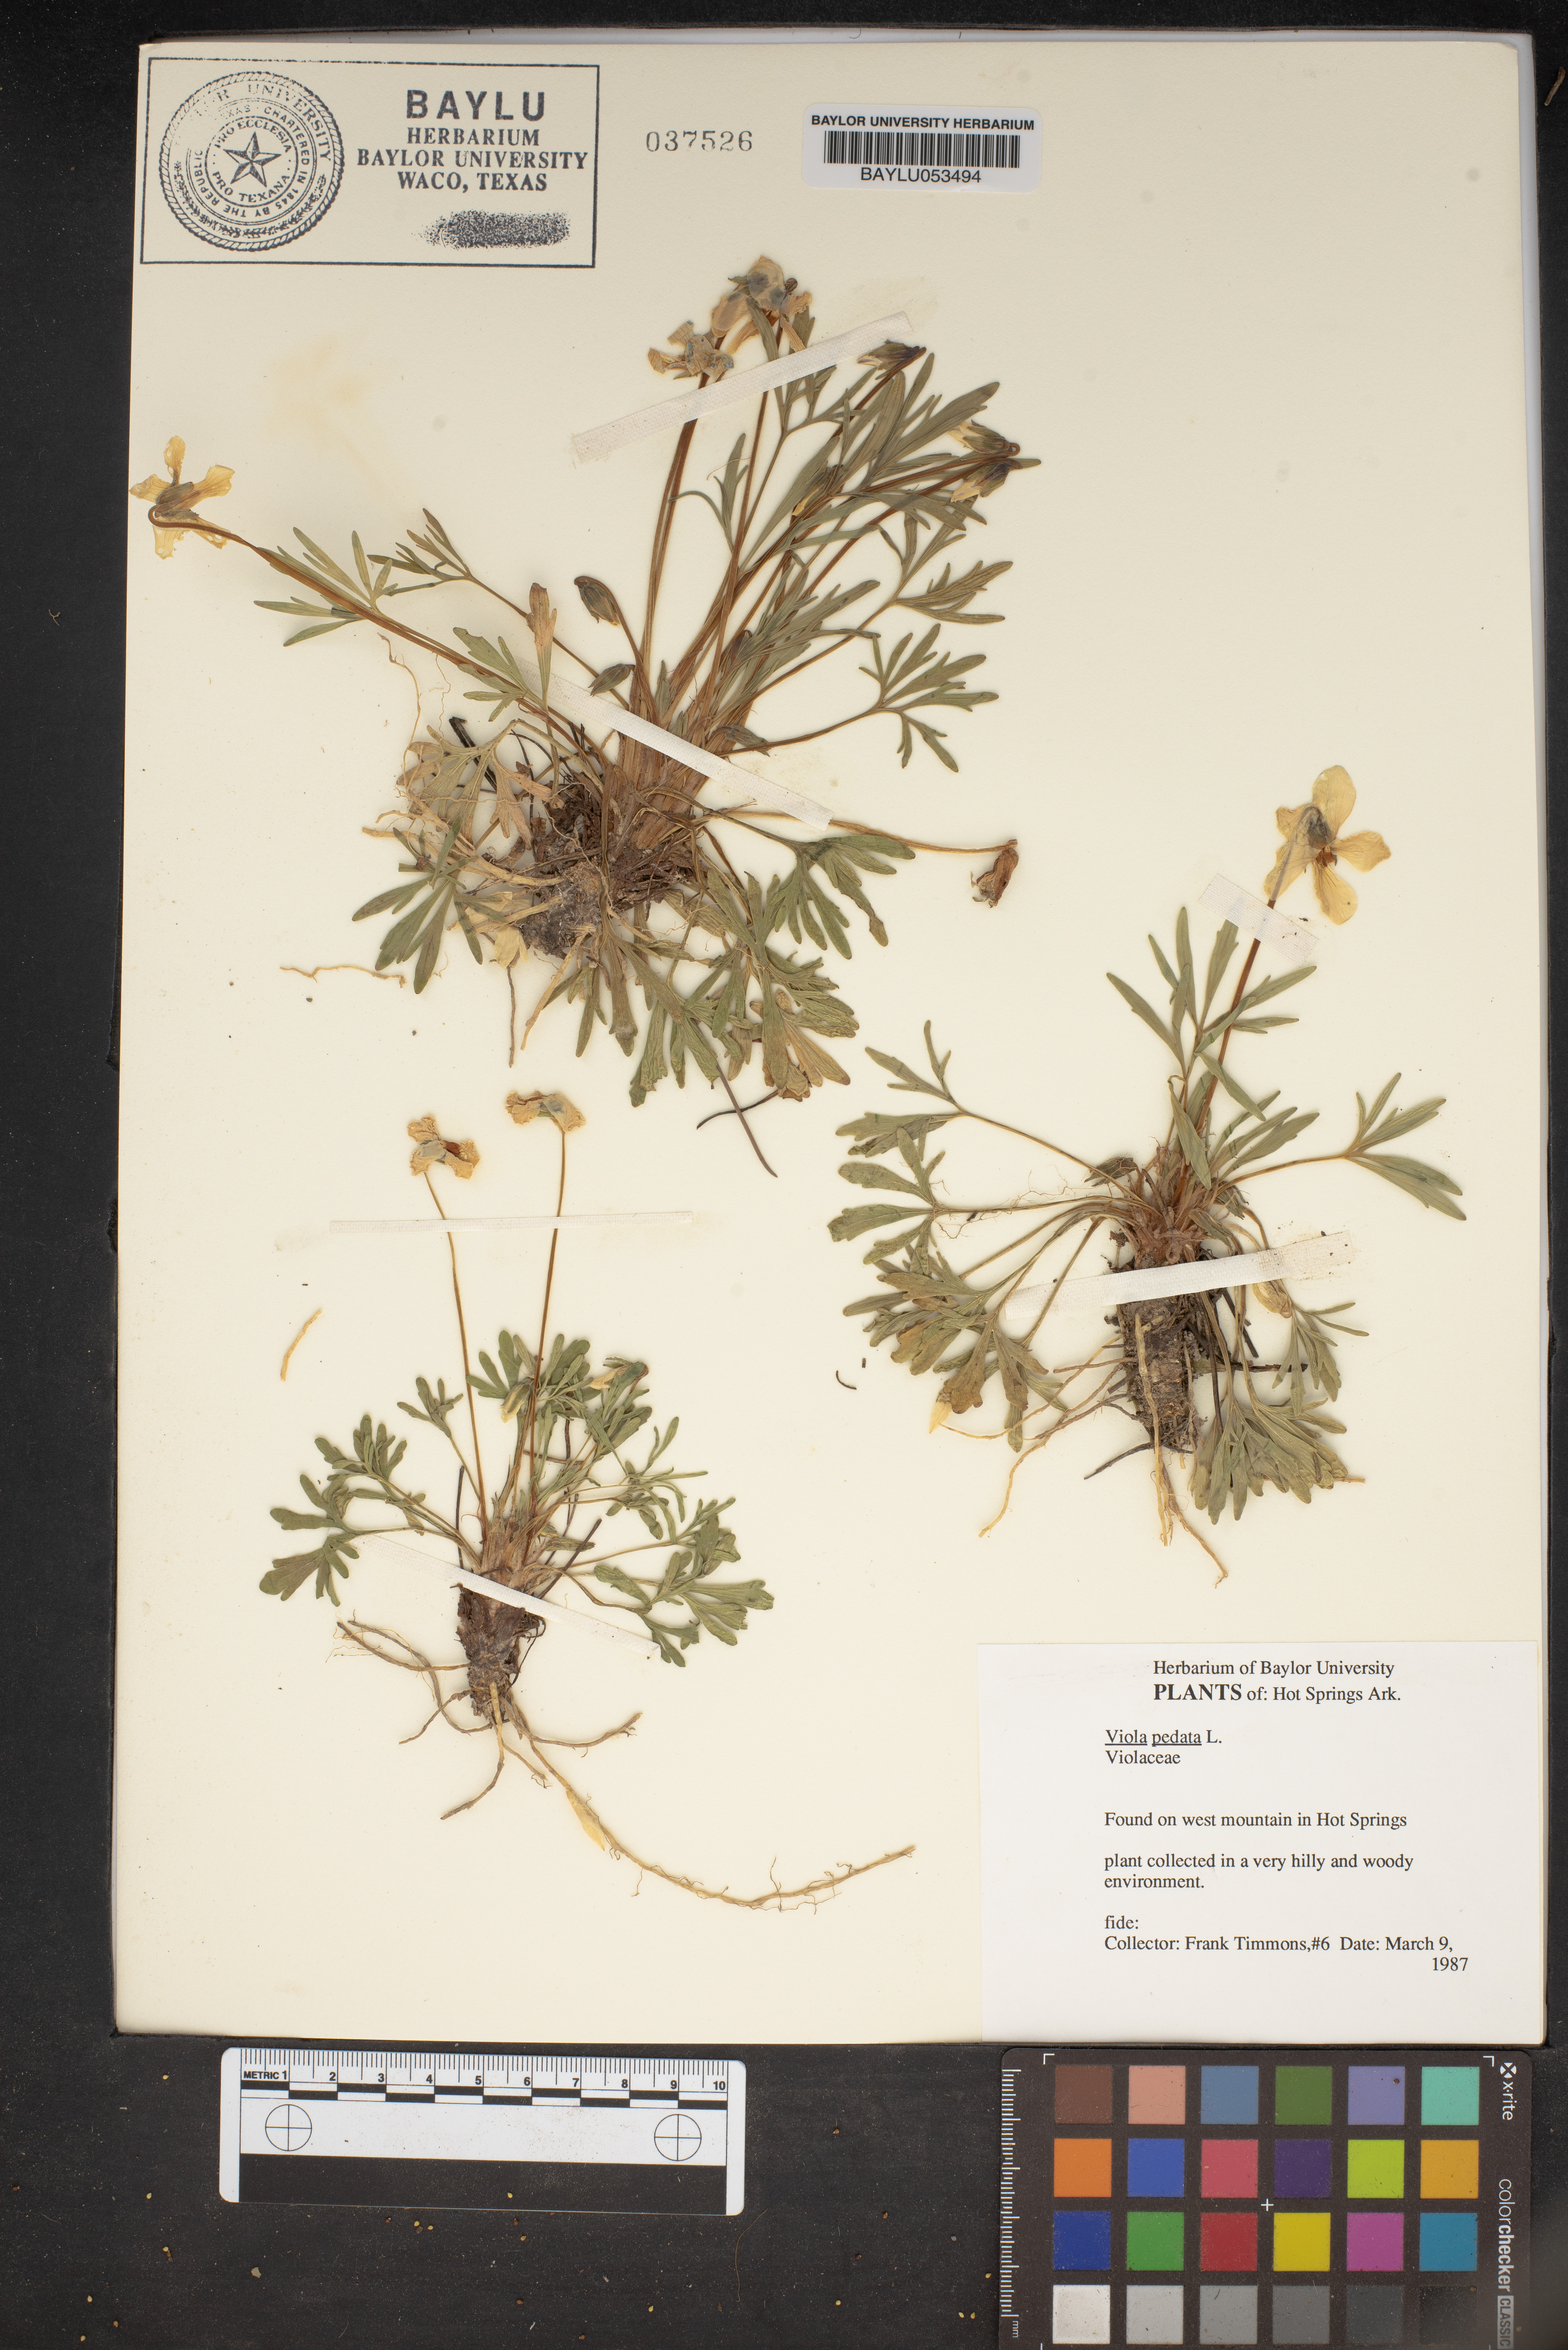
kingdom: Plantae
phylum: Tracheophyta
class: Magnoliopsida
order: Malpighiales
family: Violaceae
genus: Viola
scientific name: Viola pedata
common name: Pansy violet
